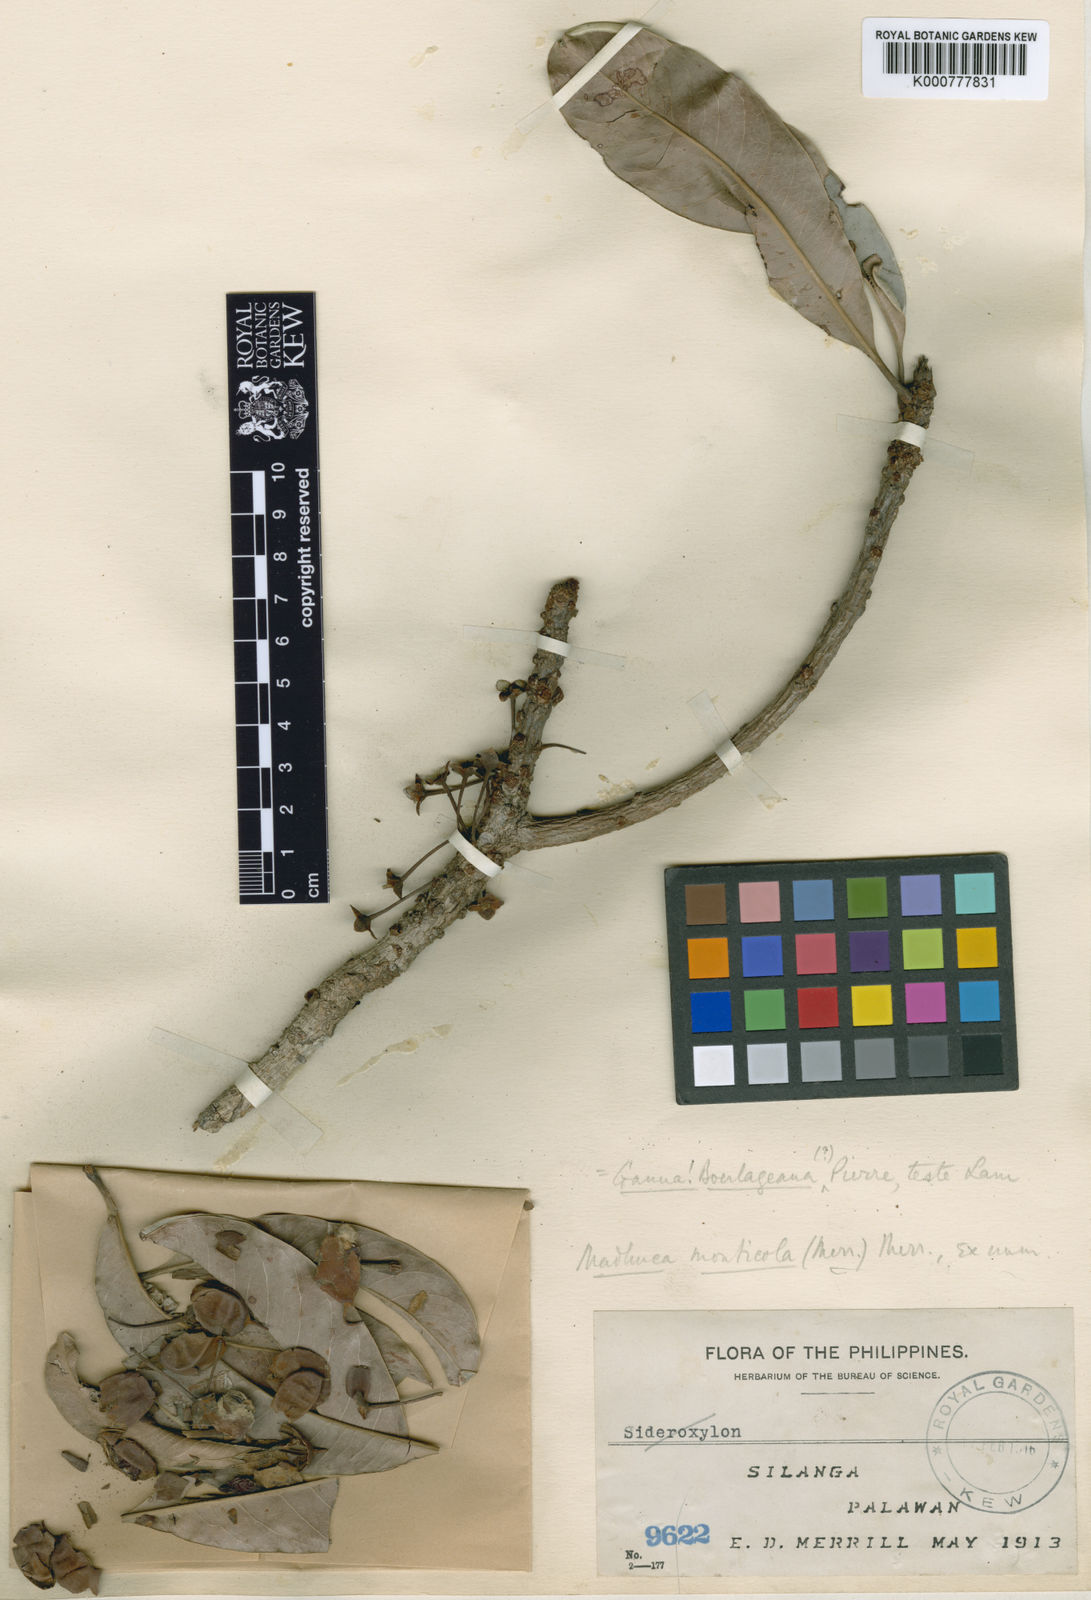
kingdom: Plantae
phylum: Tracheophyta
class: Magnoliopsida
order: Ericales
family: Sapotaceae
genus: Madhuca
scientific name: Madhuca monticola
